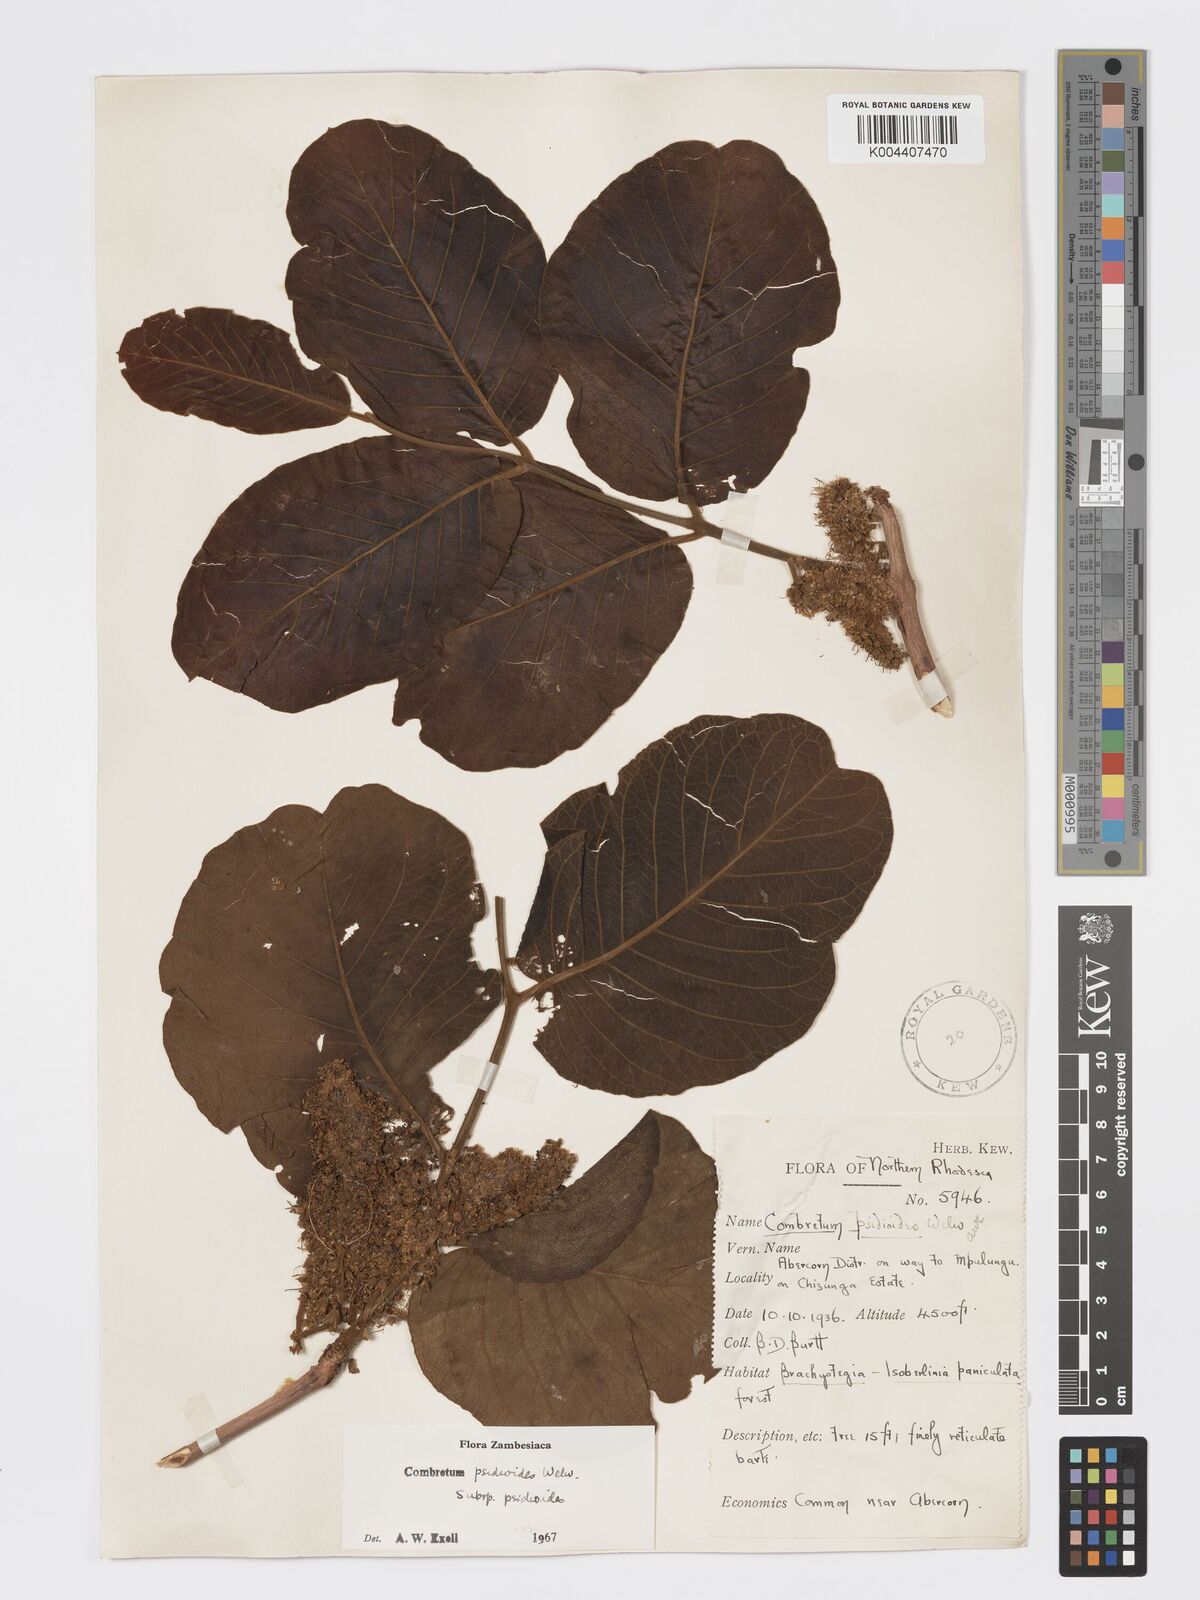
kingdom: Plantae
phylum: Tracheophyta
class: Magnoliopsida
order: Myrtales
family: Combretaceae
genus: Combretum
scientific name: Combretum psidioides
